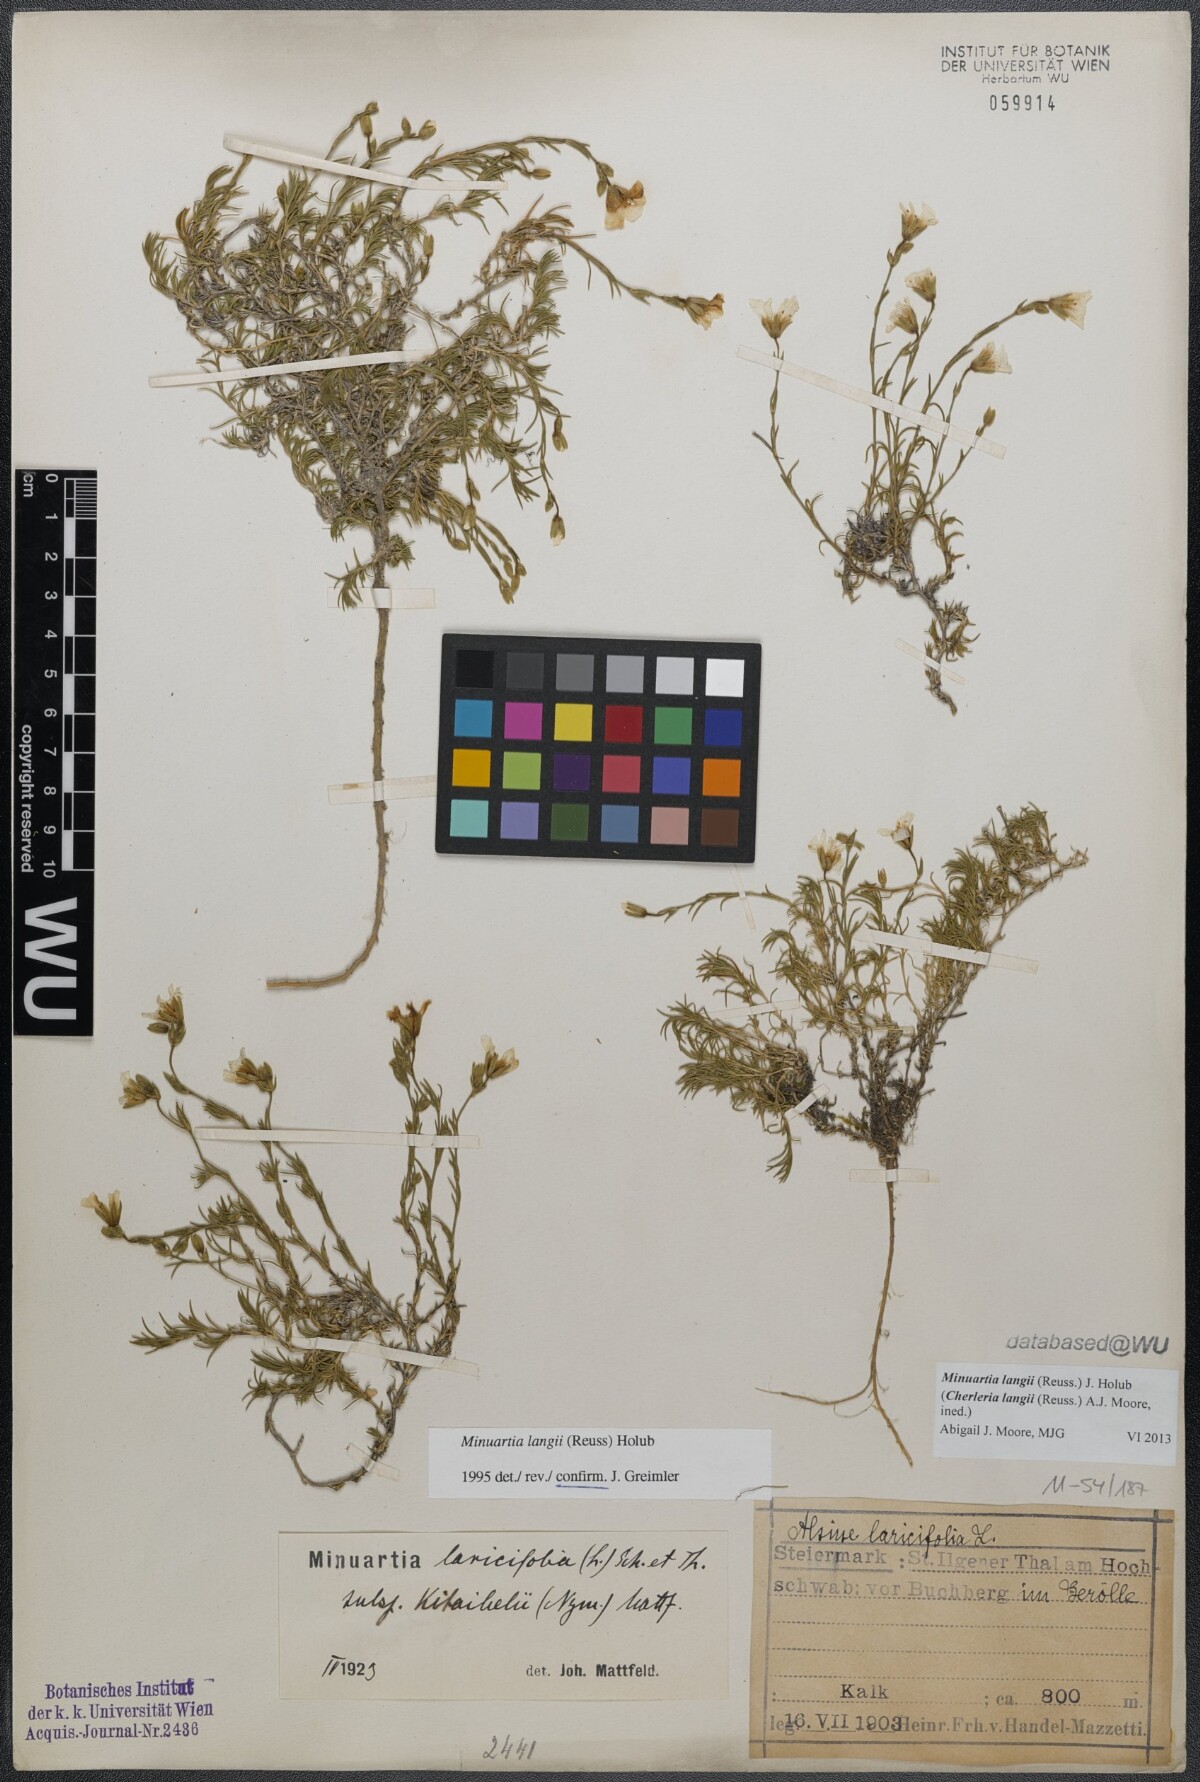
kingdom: Plantae
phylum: Tracheophyta
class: Magnoliopsida
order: Caryophyllales
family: Caryophyllaceae
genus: Cherleria
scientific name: Cherleria langii
